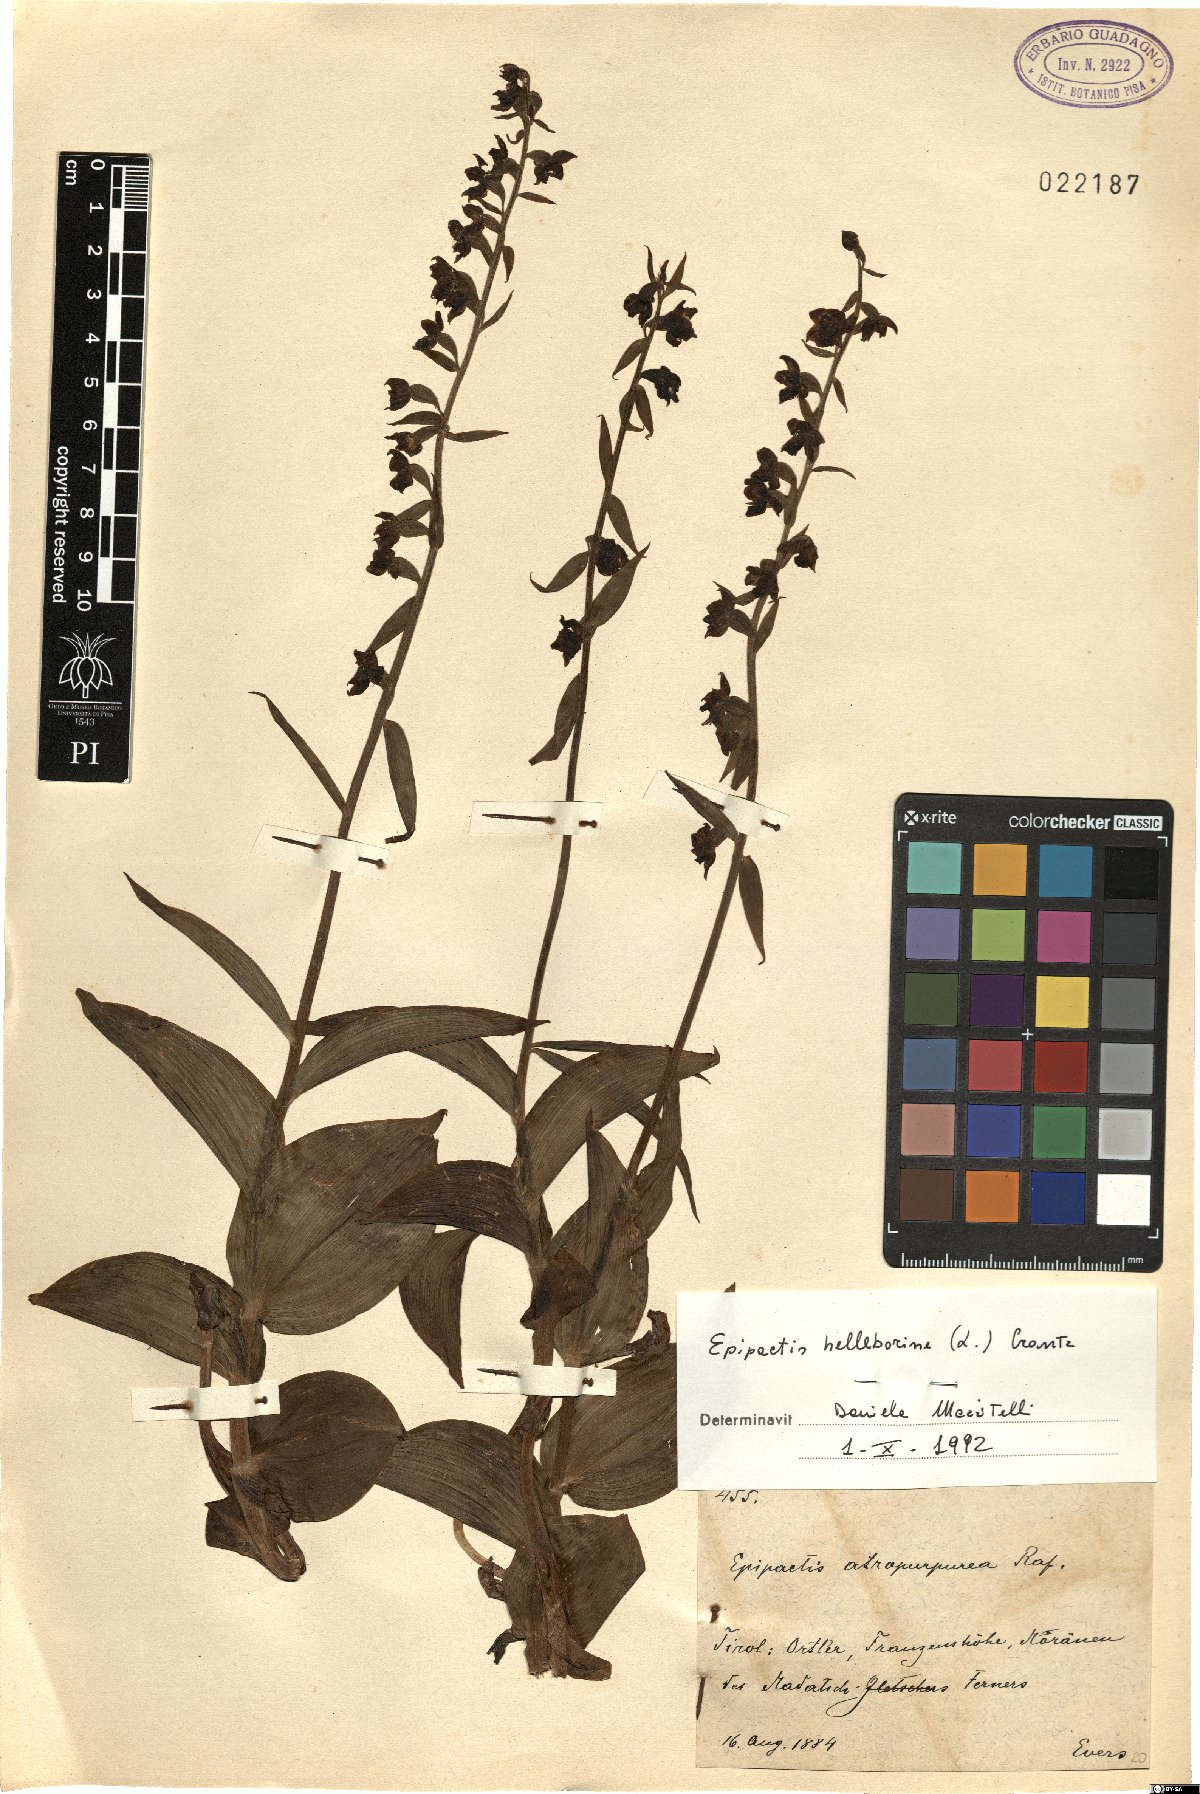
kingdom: Plantae
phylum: Tracheophyta
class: Liliopsida
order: Asparagales
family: Orchidaceae
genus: Epipactis
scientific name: Epipactis helleborine
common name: Broad-leaved helleborine
